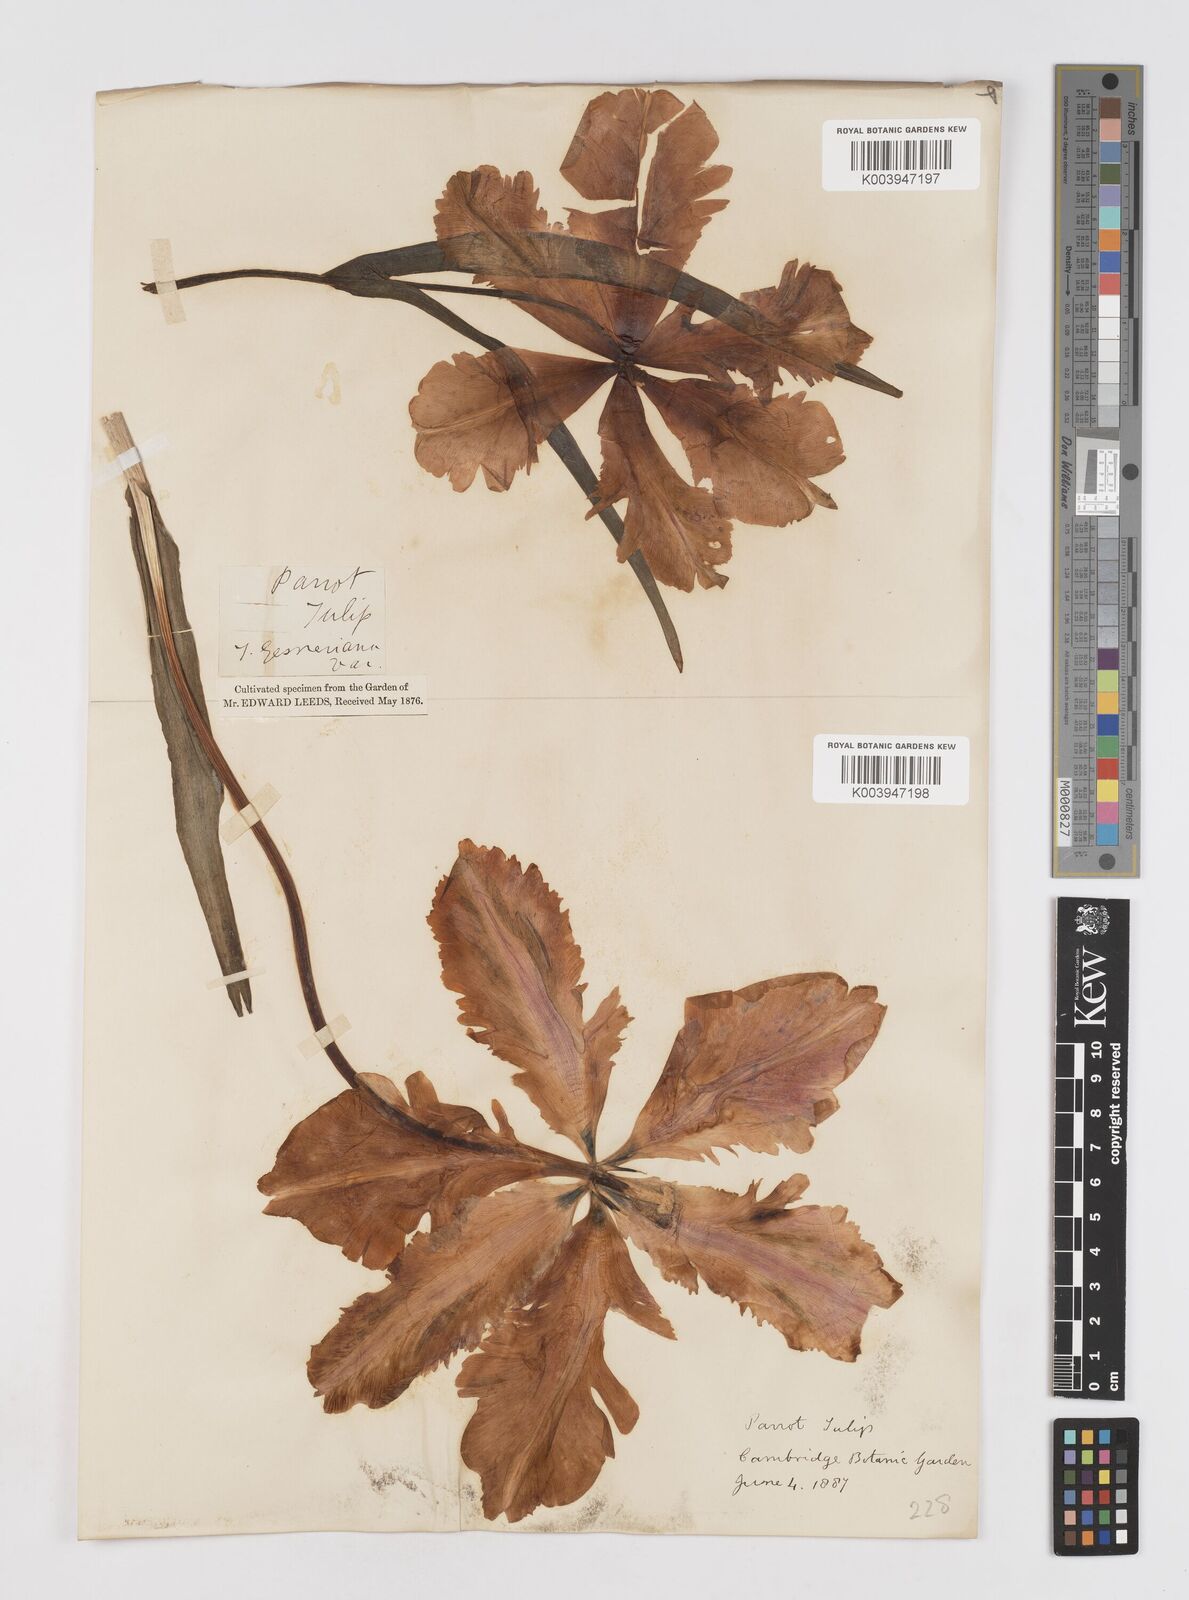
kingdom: Plantae
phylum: Tracheophyta
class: Liliopsida
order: Liliales
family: Liliaceae
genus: Tulipa
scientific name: Tulipa gesneriana
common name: Garden tulip
